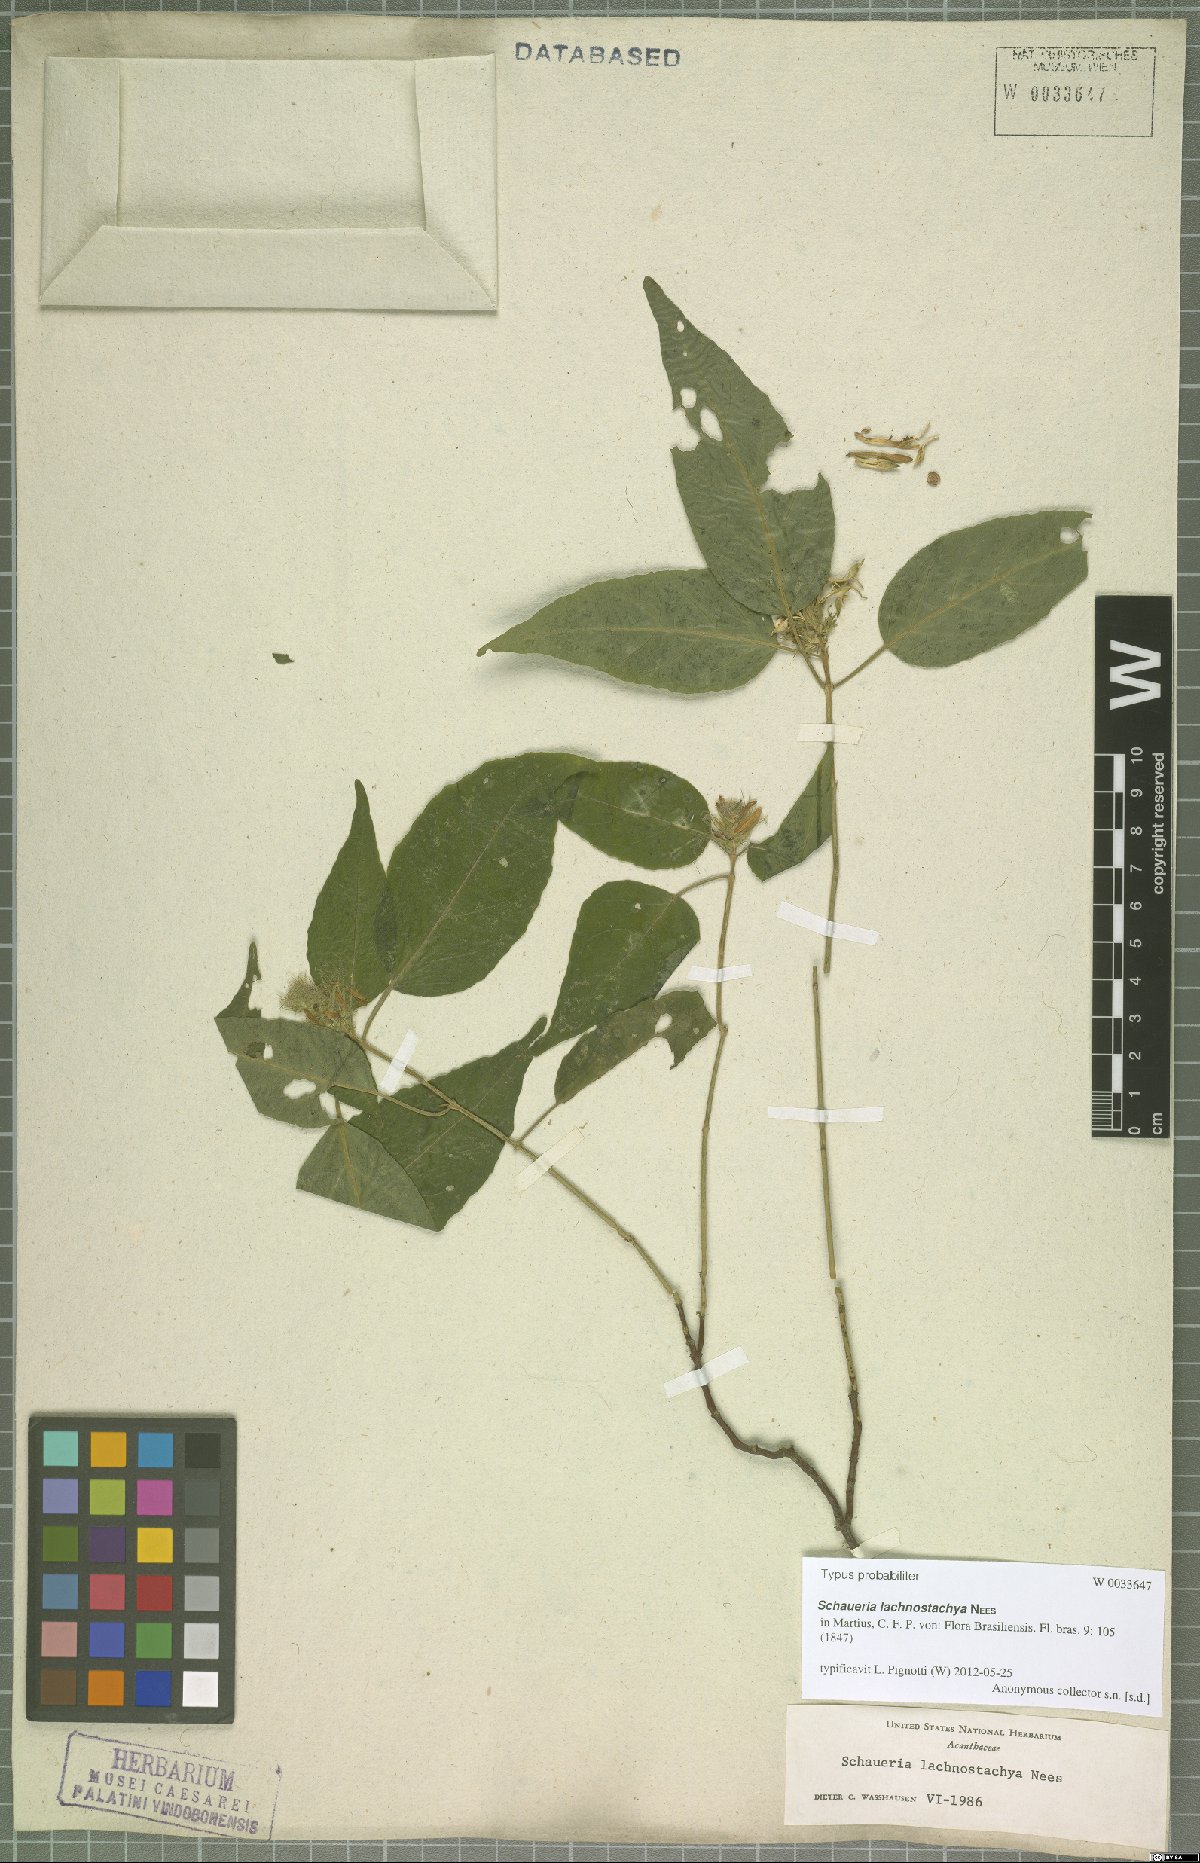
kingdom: Plantae
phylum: Tracheophyta
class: Magnoliopsida
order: Lamiales
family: Acanthaceae
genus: Schaueria
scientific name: Schaueria lachnostachya
